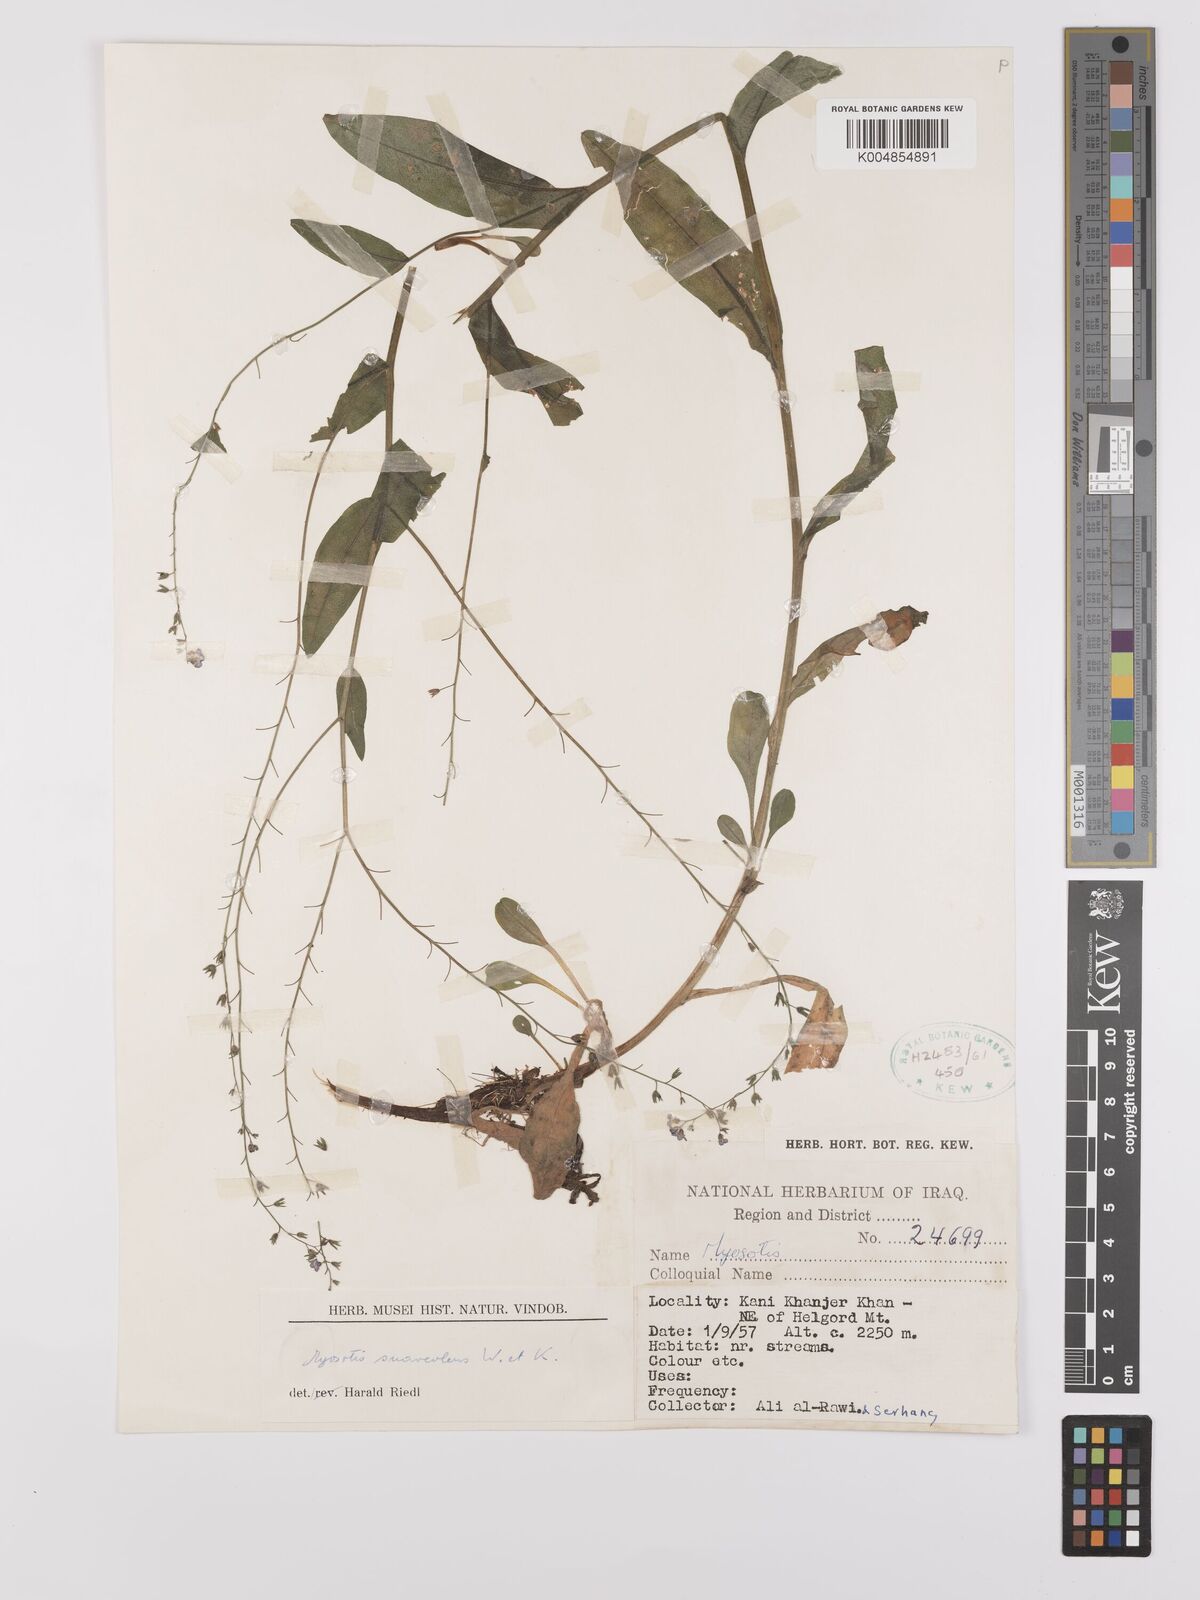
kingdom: Plantae
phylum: Tracheophyta
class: Magnoliopsida
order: Boraginales
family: Boraginaceae
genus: Myosotis
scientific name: Myosotis
